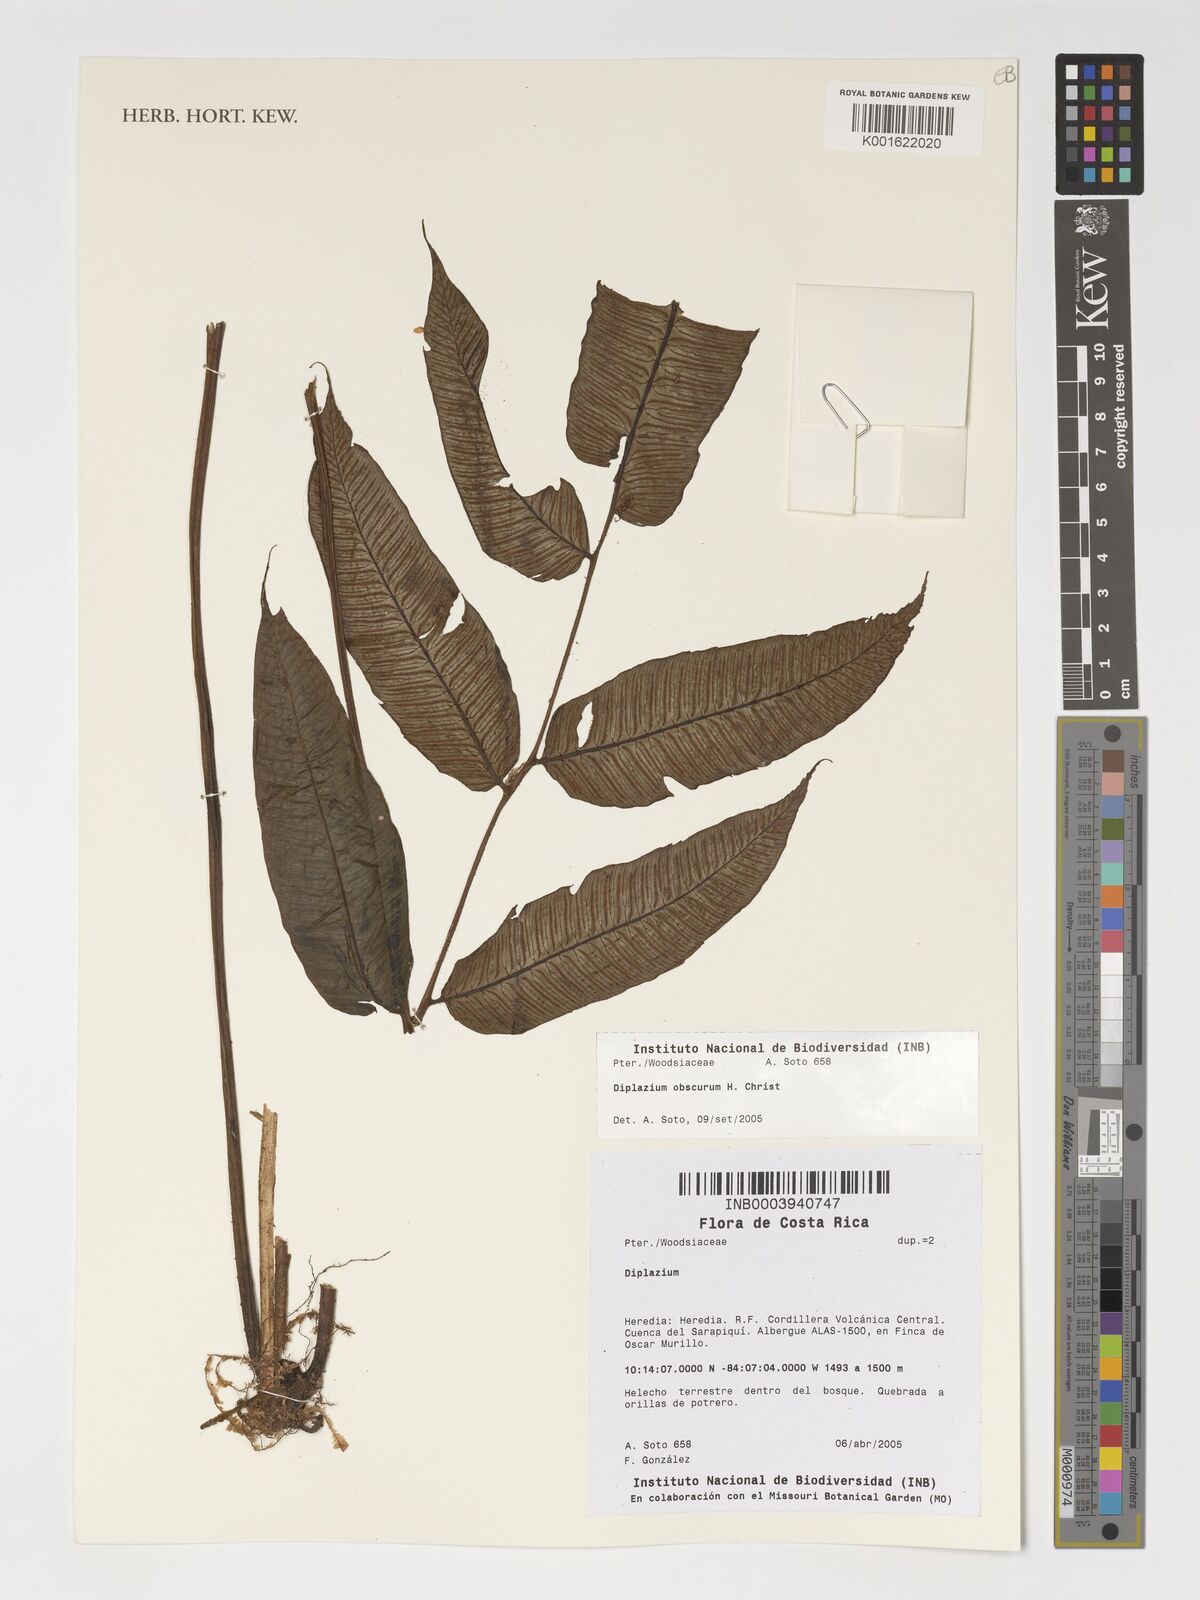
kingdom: Plantae
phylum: Tracheophyta
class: Polypodiopsida
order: Polypodiales
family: Athyriaceae
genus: Diplazium
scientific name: Diplazium obscurum
